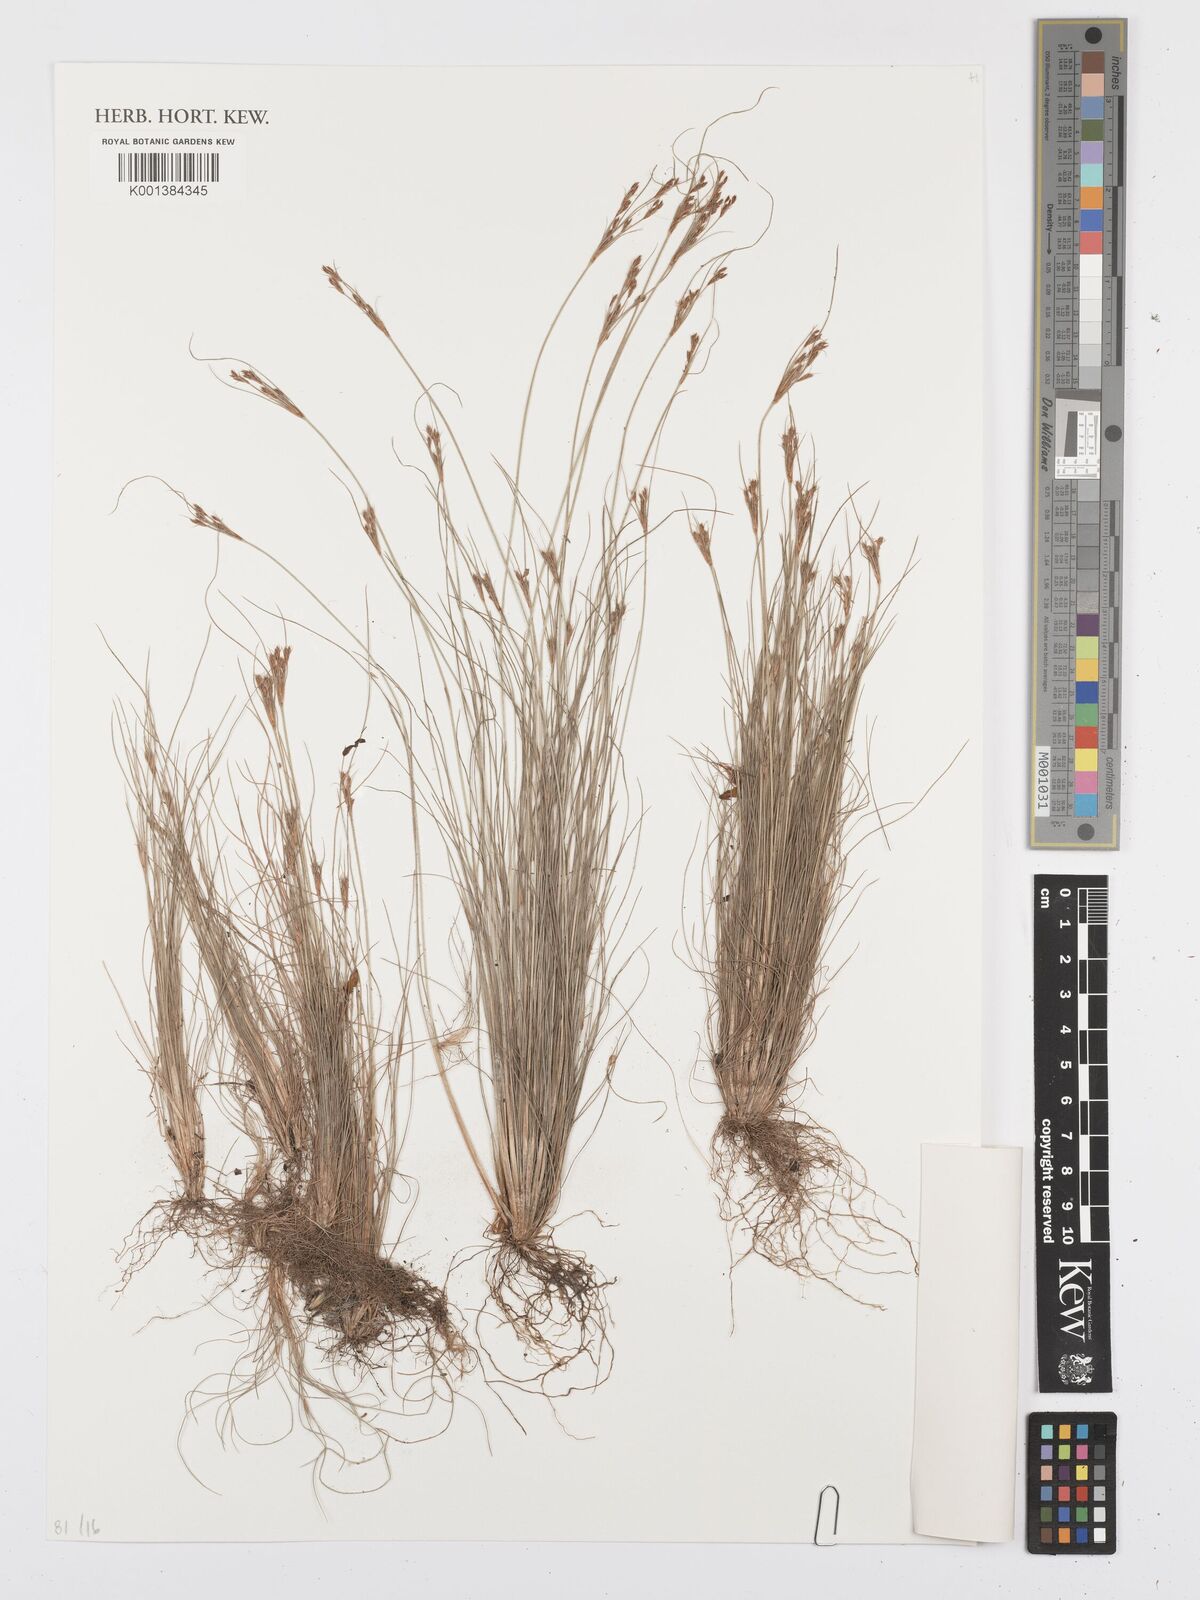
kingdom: Plantae
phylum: Tracheophyta
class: Liliopsida
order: Poales
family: Cyperaceae
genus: Bulbostylis
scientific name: Bulbostylis
